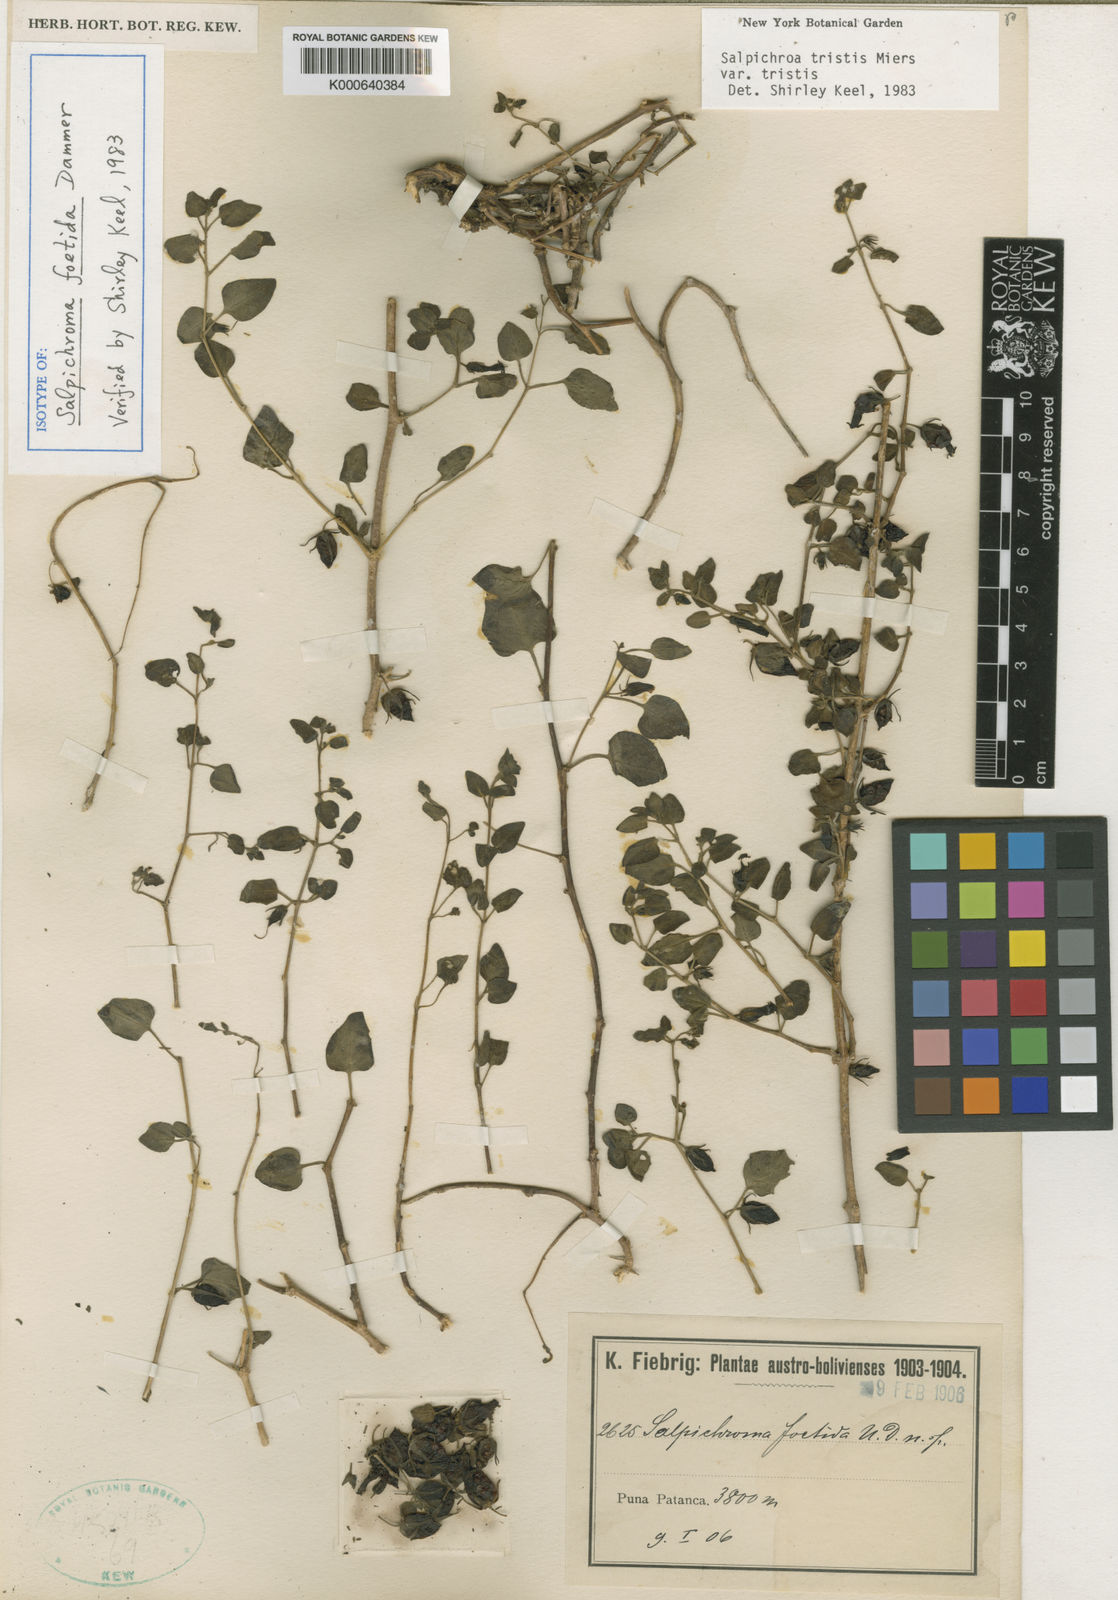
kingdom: Plantae
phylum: Tracheophyta
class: Magnoliopsida
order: Solanales
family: Solanaceae
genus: Salpichroa
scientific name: Salpichroa
